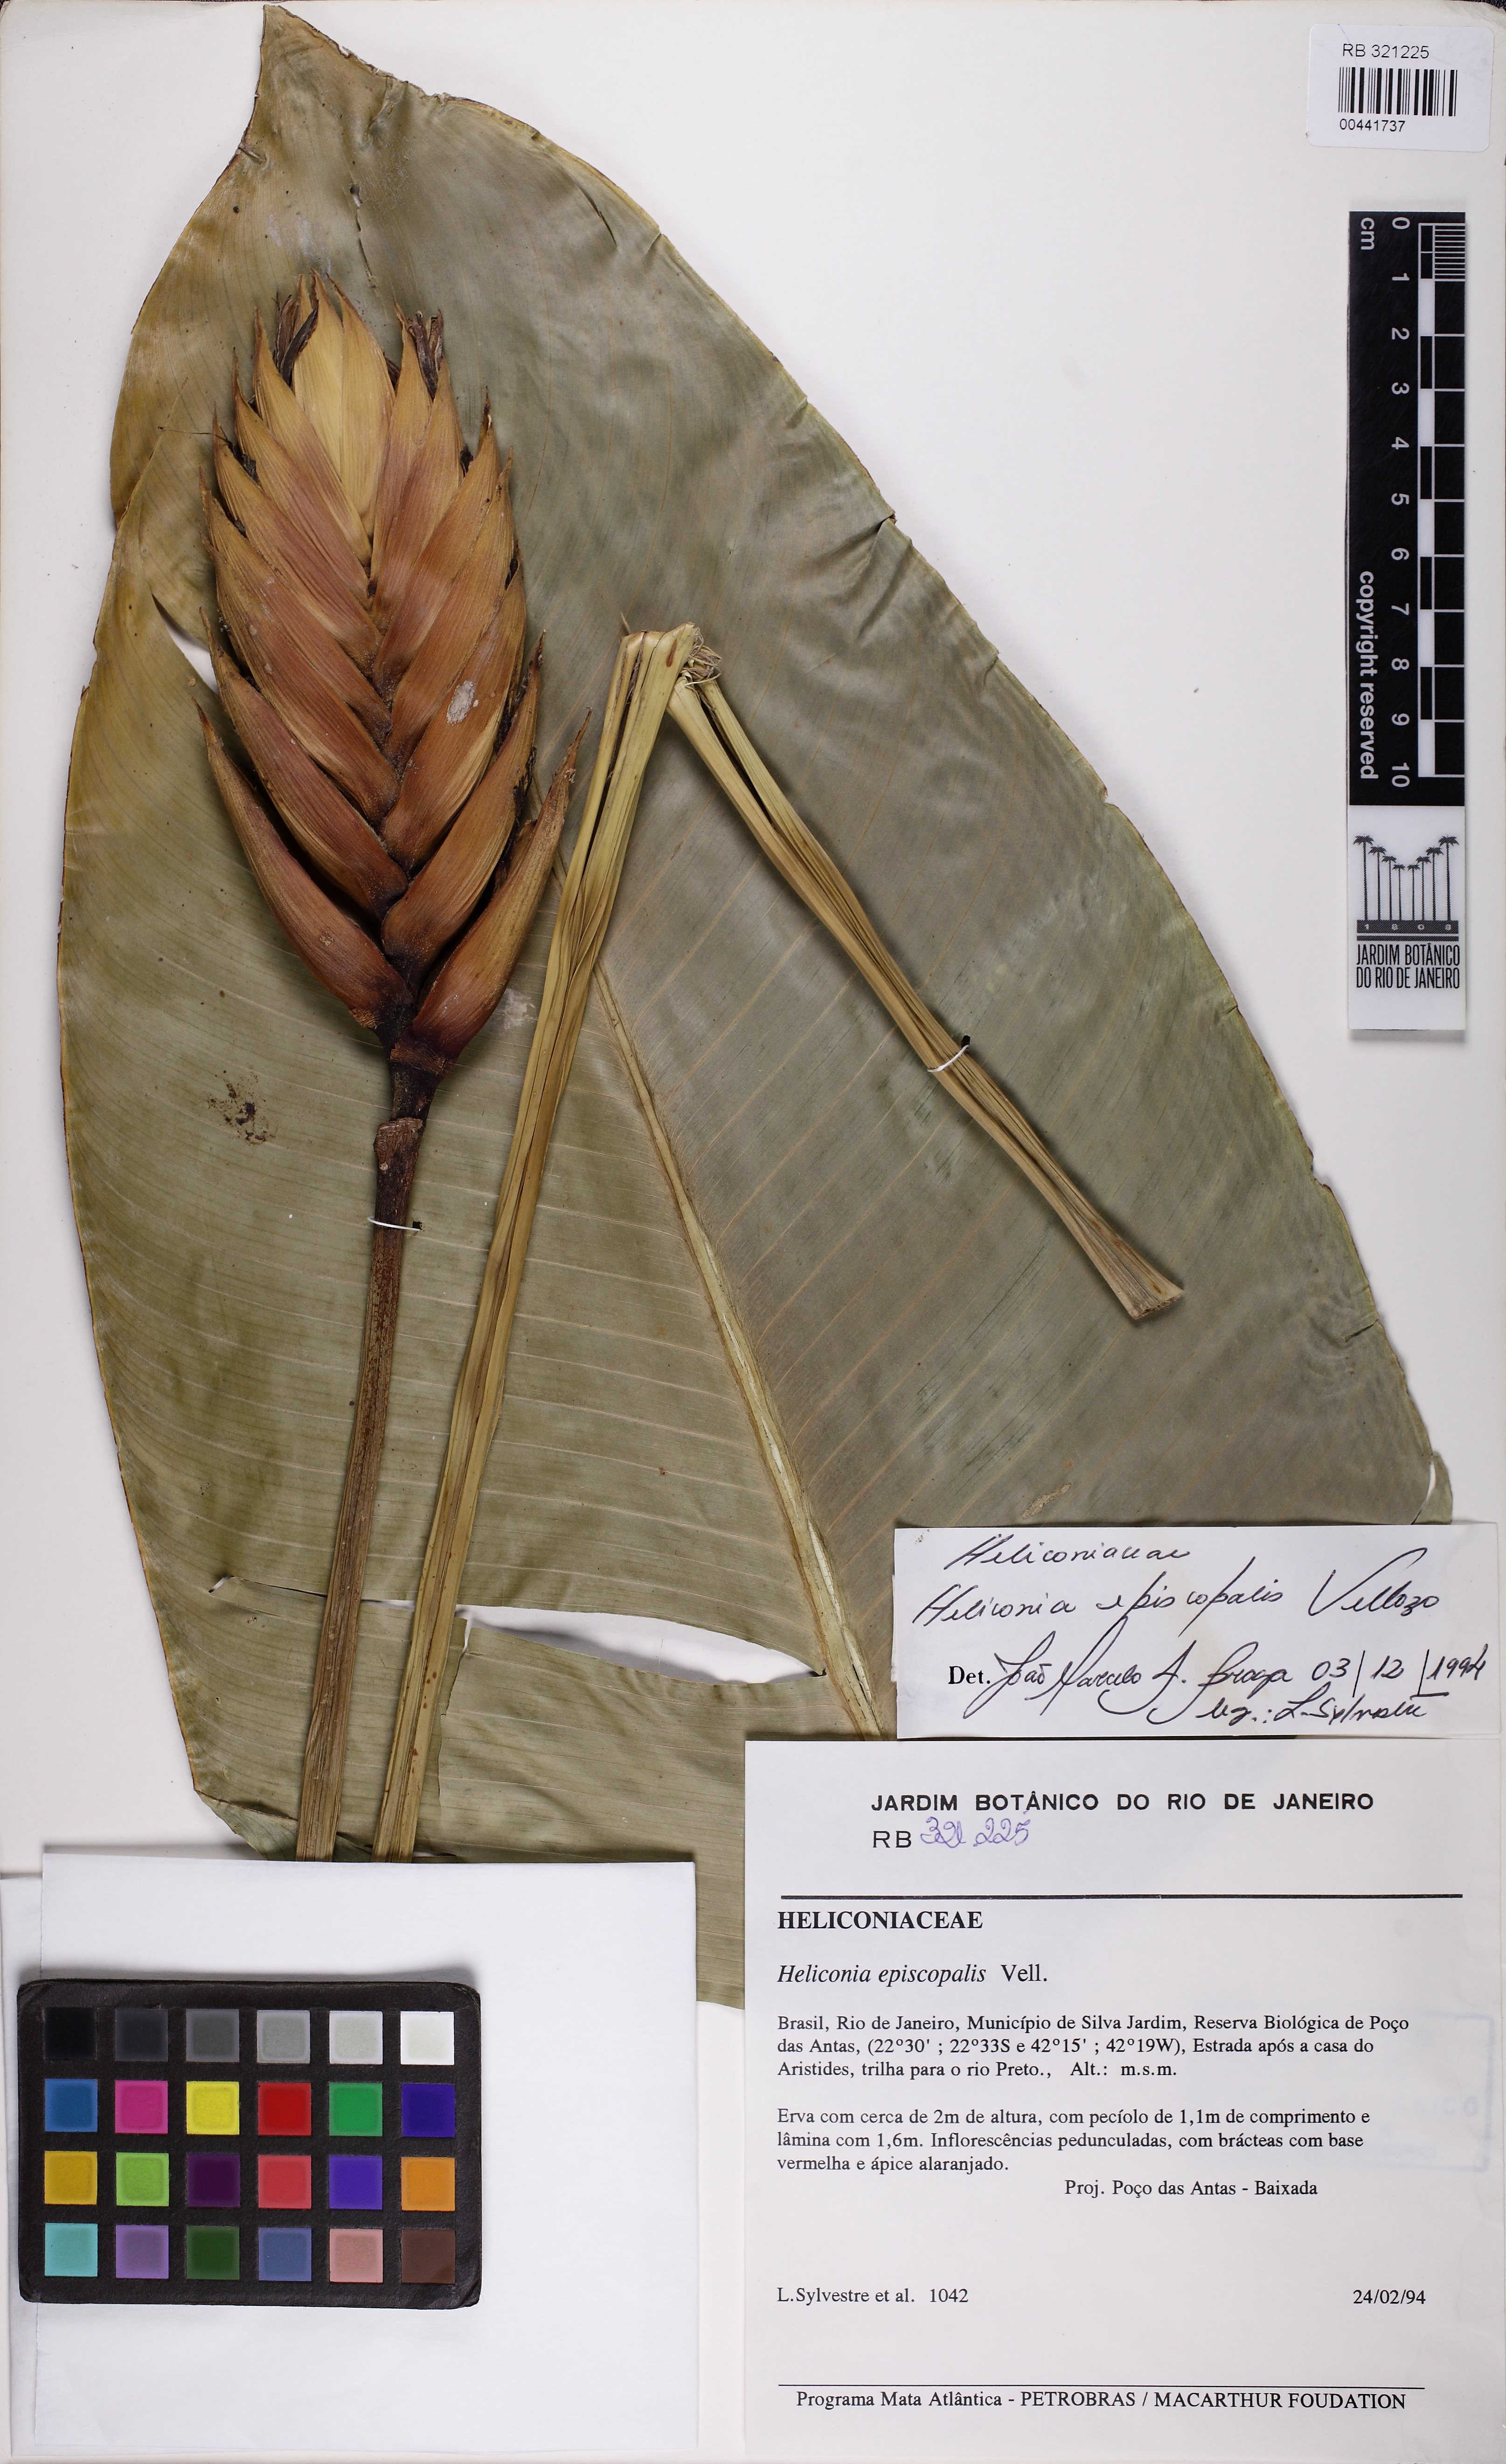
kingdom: Plantae
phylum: Tracheophyta
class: Liliopsida
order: Zingiberales
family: Heliconiaceae
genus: Heliconia
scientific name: Heliconia episcopalis
